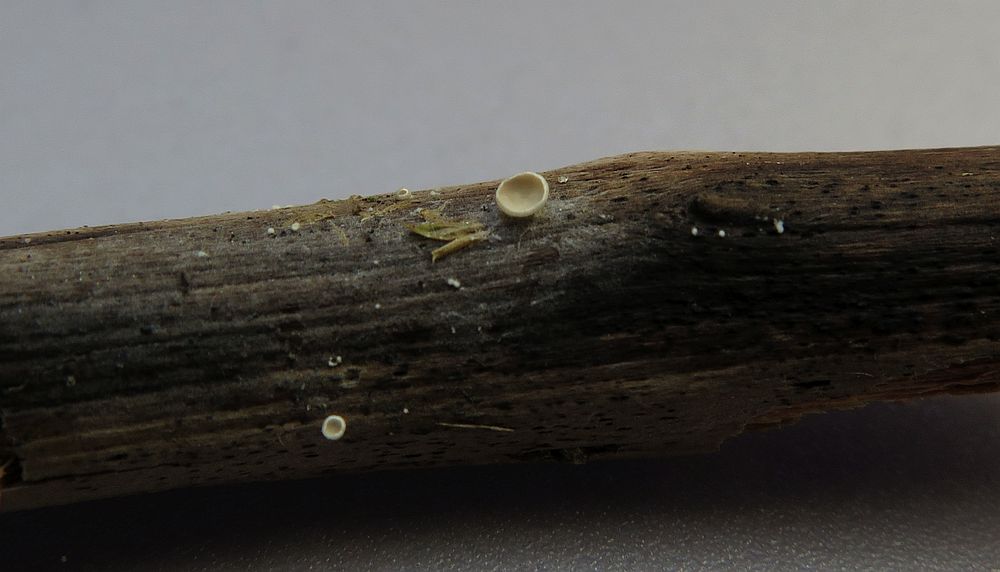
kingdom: Fungi
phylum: Basidiomycota
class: Agaricomycetes
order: Agaricales
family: Hygrophoraceae
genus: Arrhenia
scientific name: Arrhenia retiruga
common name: lille fontænehat
